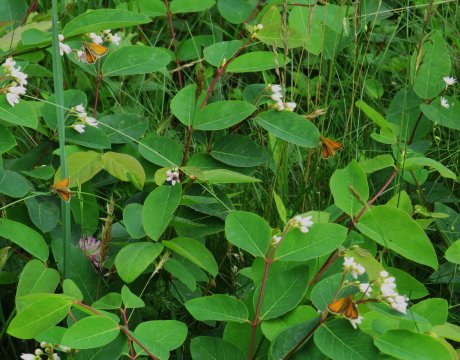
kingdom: Animalia
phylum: Arthropoda
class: Insecta
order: Lepidoptera
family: Hesperiidae
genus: Thymelicus
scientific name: Thymelicus lineola
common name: European Skipper
